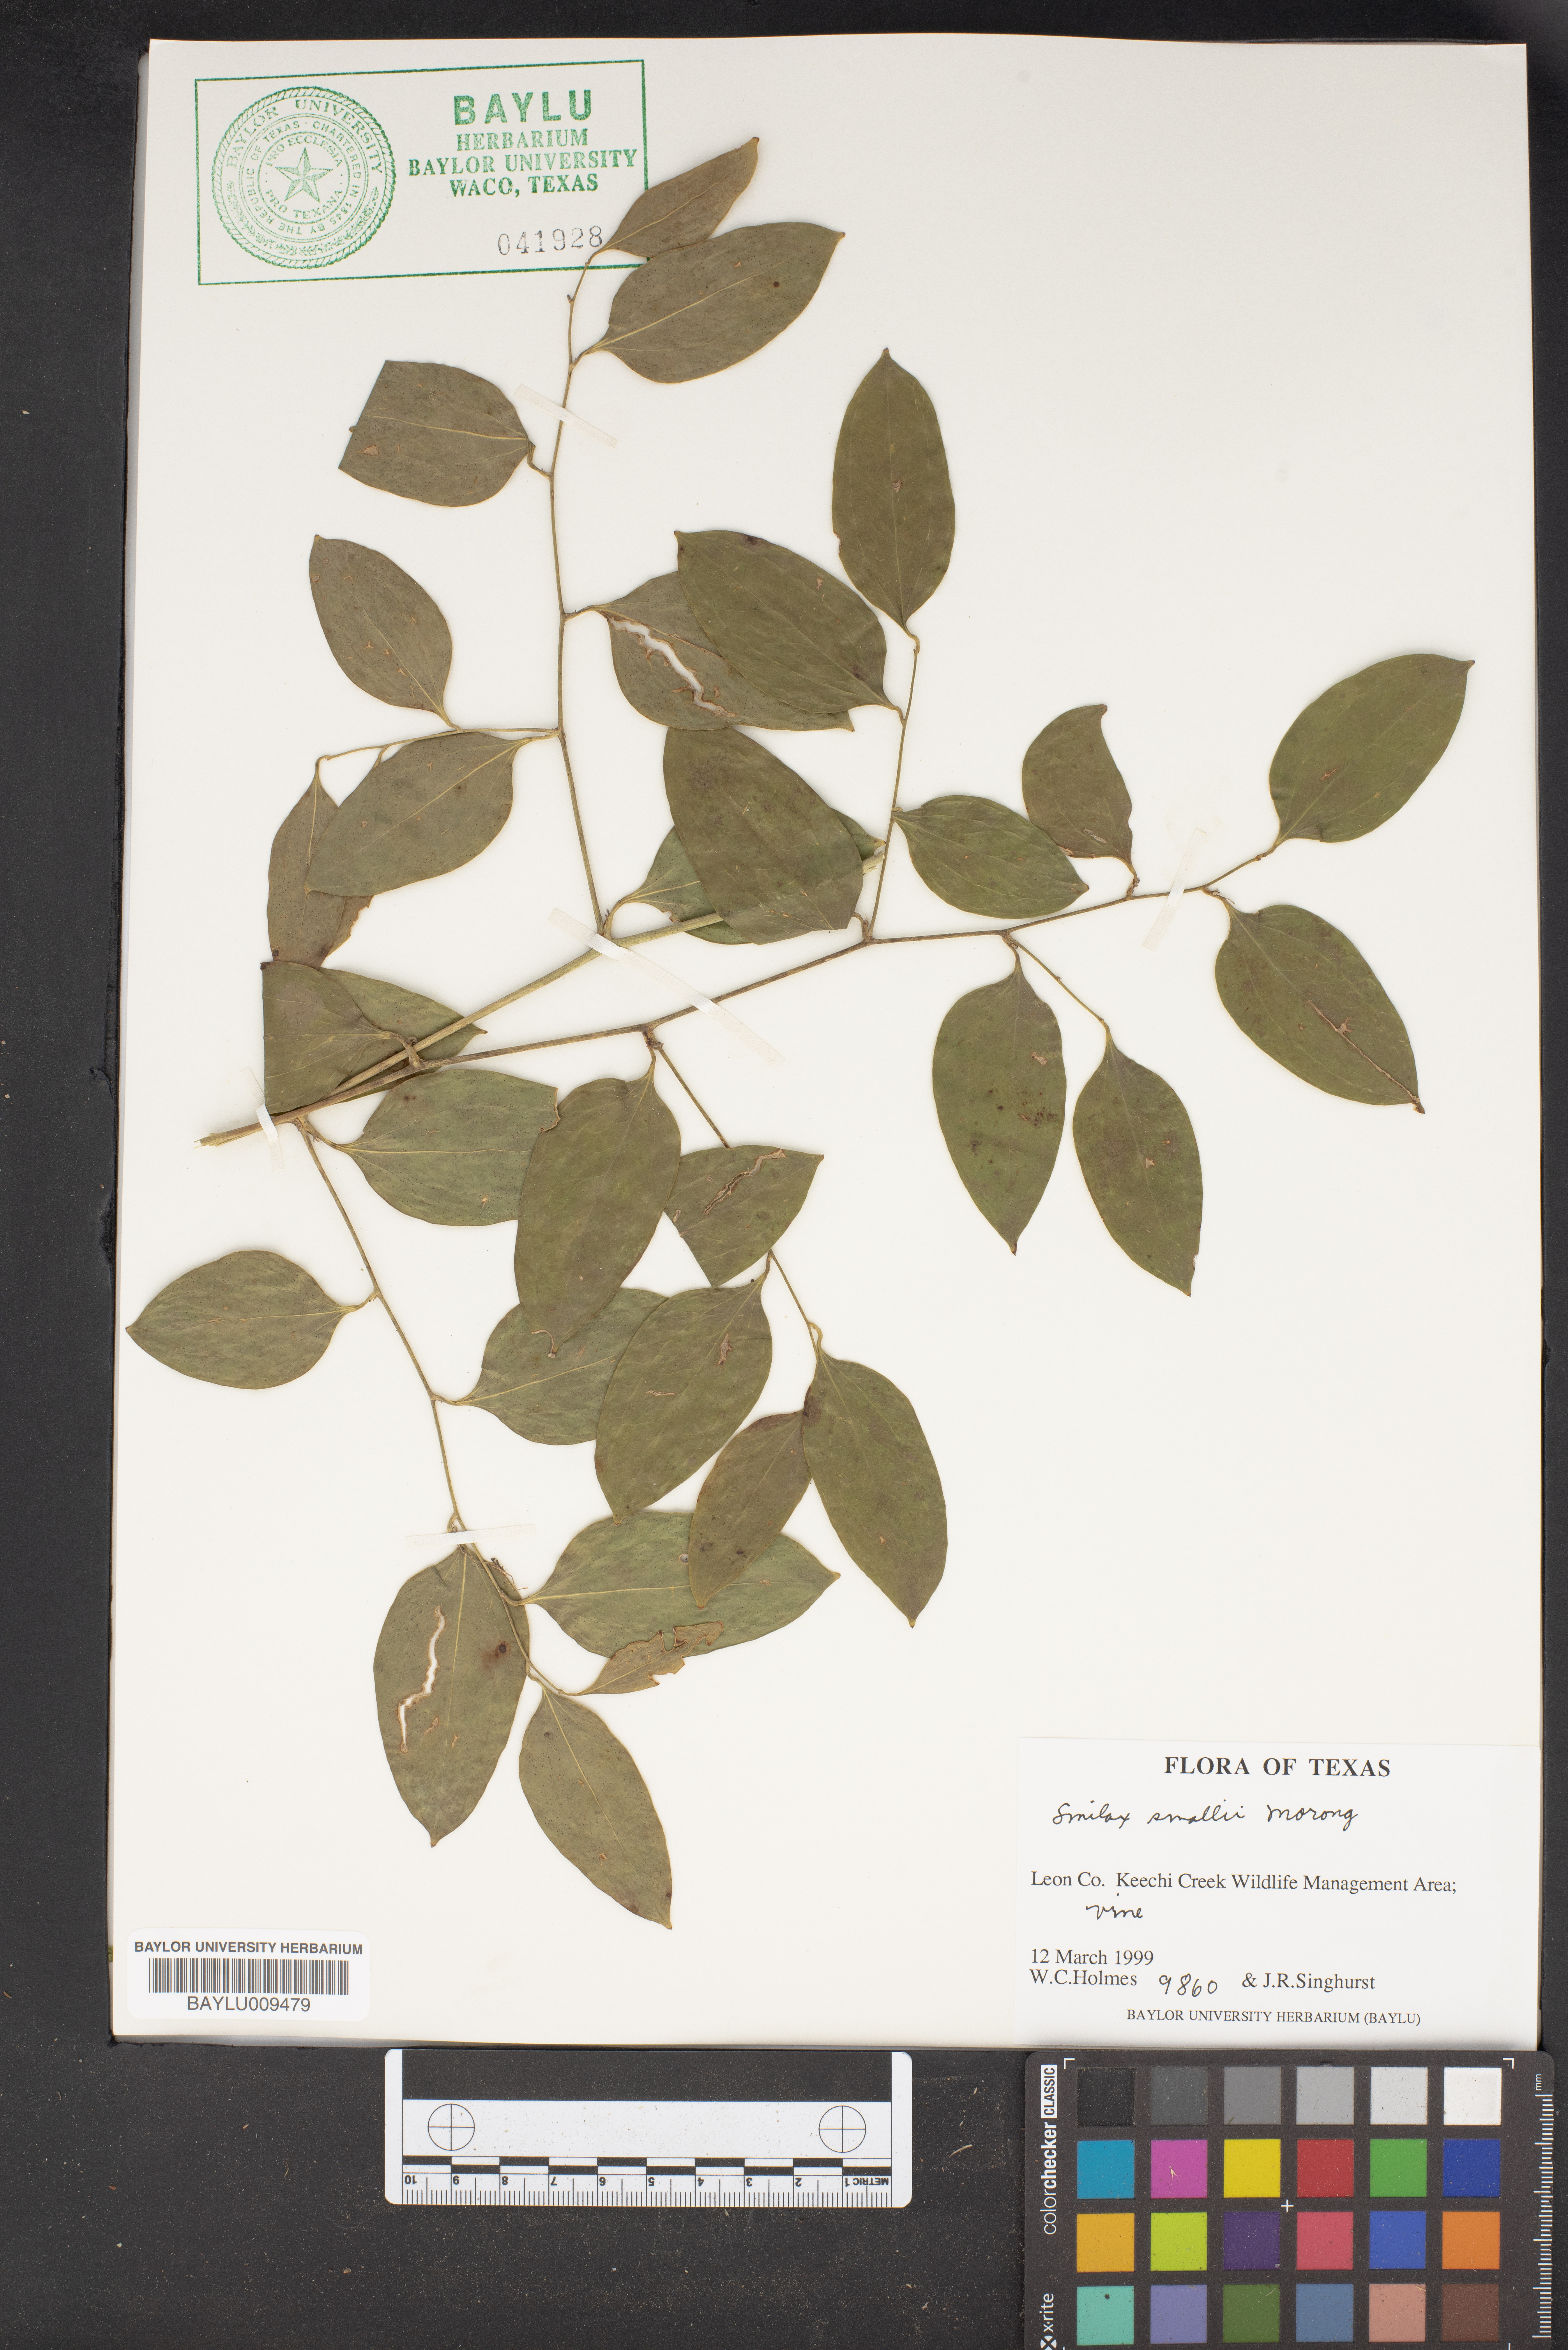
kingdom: Plantae
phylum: Tracheophyta
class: Liliopsida
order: Liliales
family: Smilacaceae
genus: Smilax
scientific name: Smilax maritima
